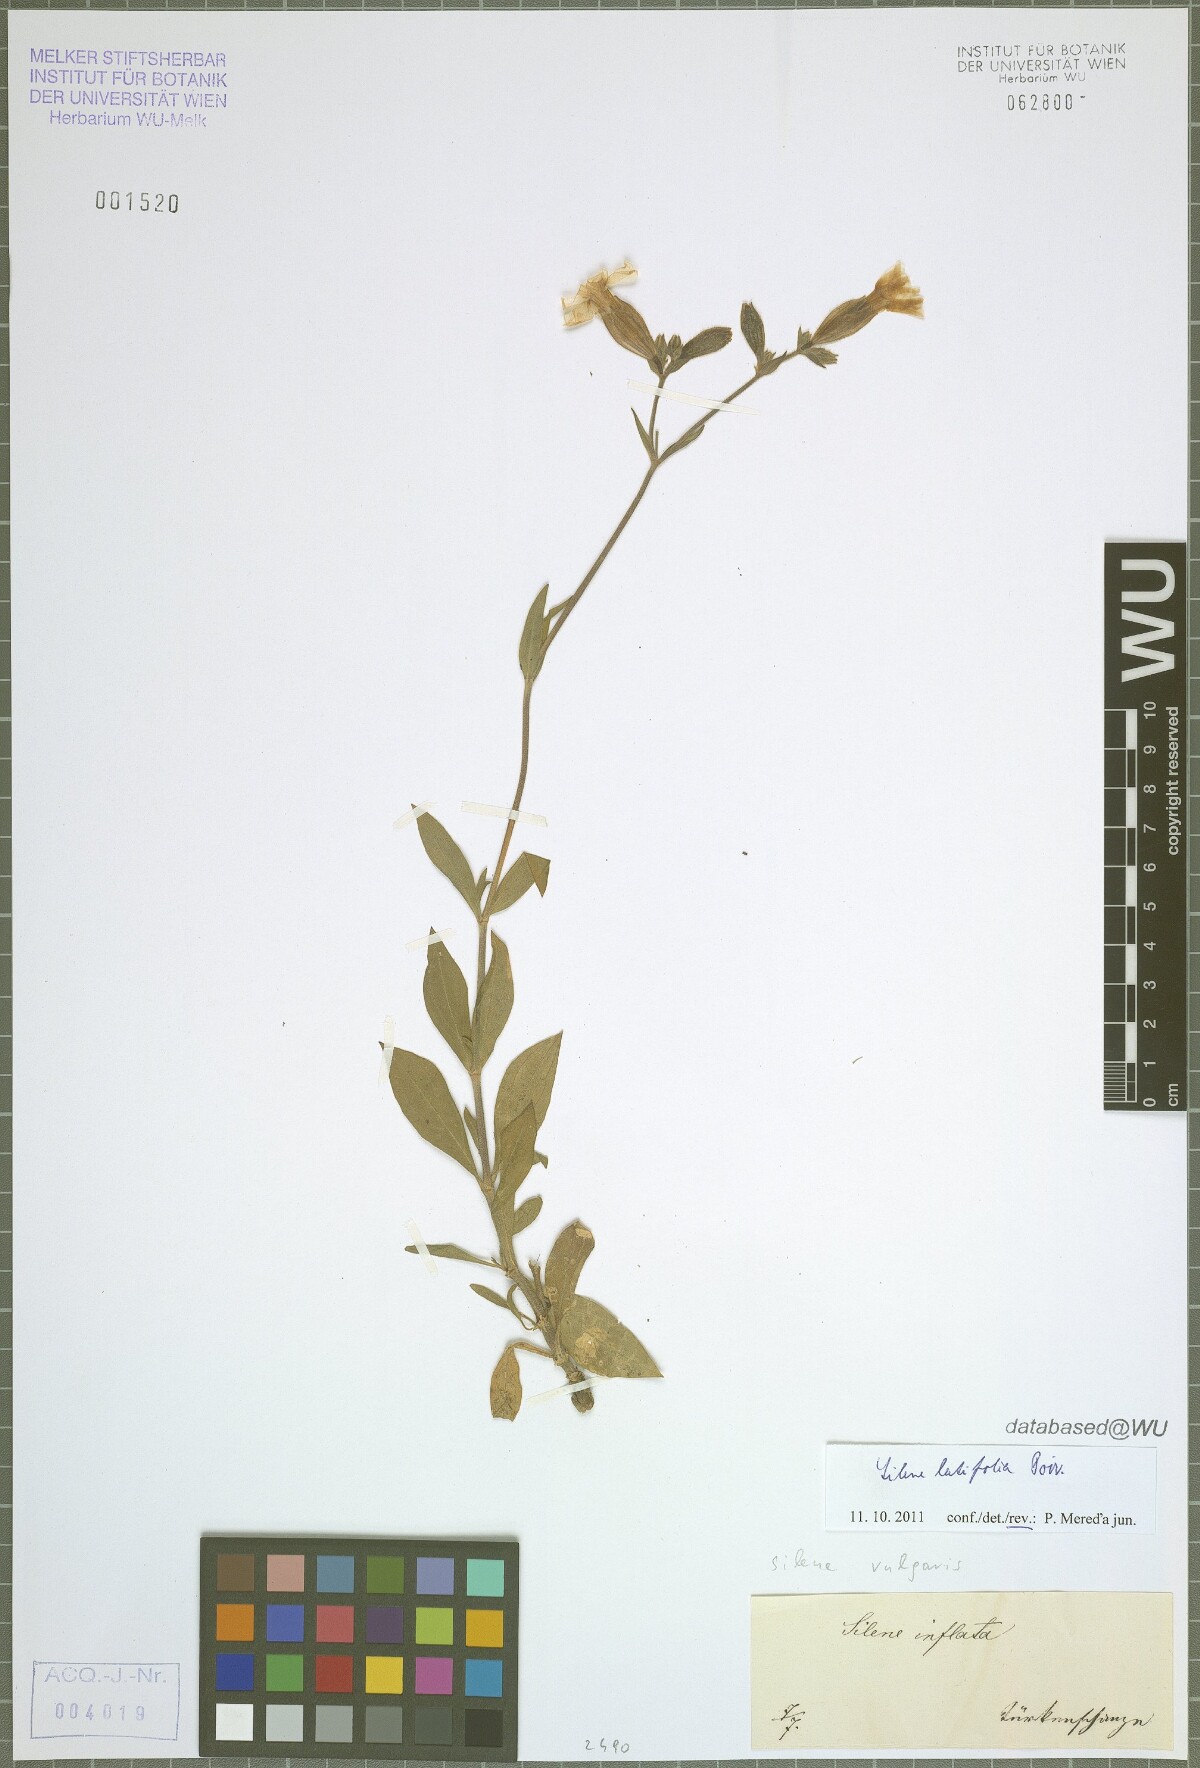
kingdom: Plantae
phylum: Tracheophyta
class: Magnoliopsida
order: Caryophyllales
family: Caryophyllaceae
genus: Silene
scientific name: Silene latifolia
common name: White campion
